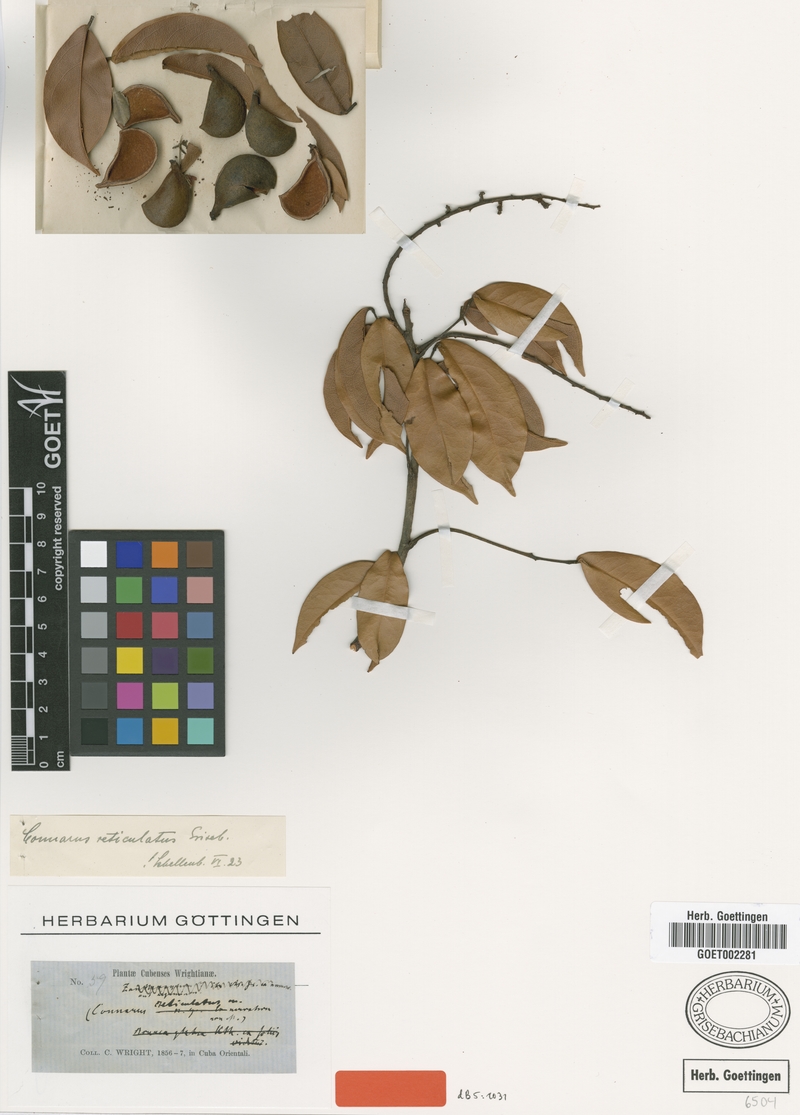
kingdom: Plantae
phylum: Tracheophyta
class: Magnoliopsida
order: Oxalidales
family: Connaraceae
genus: Connarus
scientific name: Connarus reticulatus
